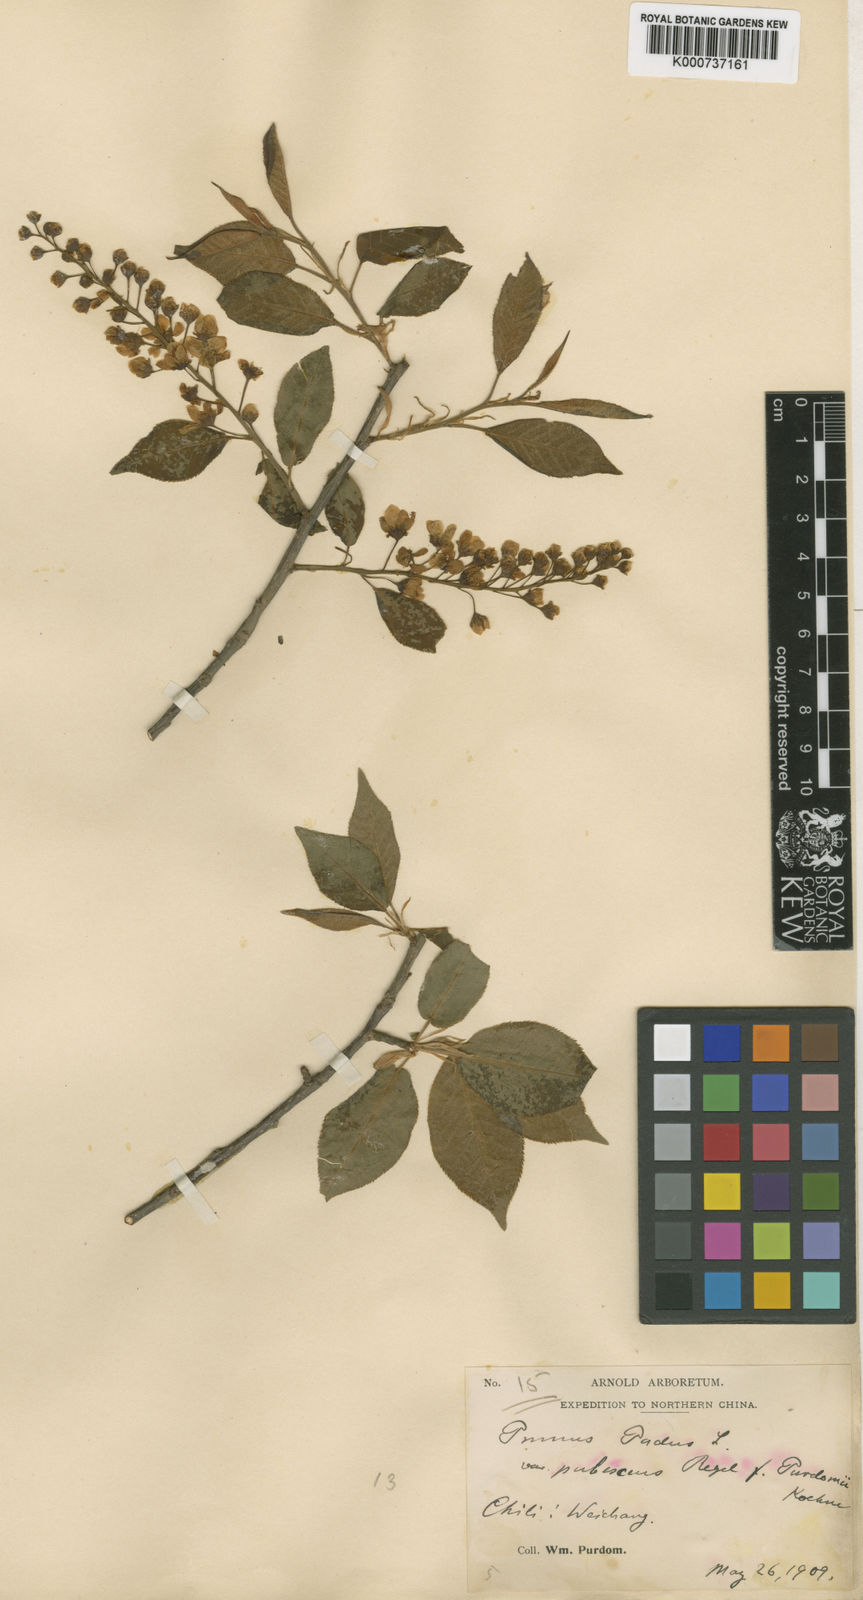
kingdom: Plantae
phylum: Tracheophyta
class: Magnoliopsida
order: Rosales
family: Rosaceae
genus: Prunus
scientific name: Prunus padus
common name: Bird cherry
